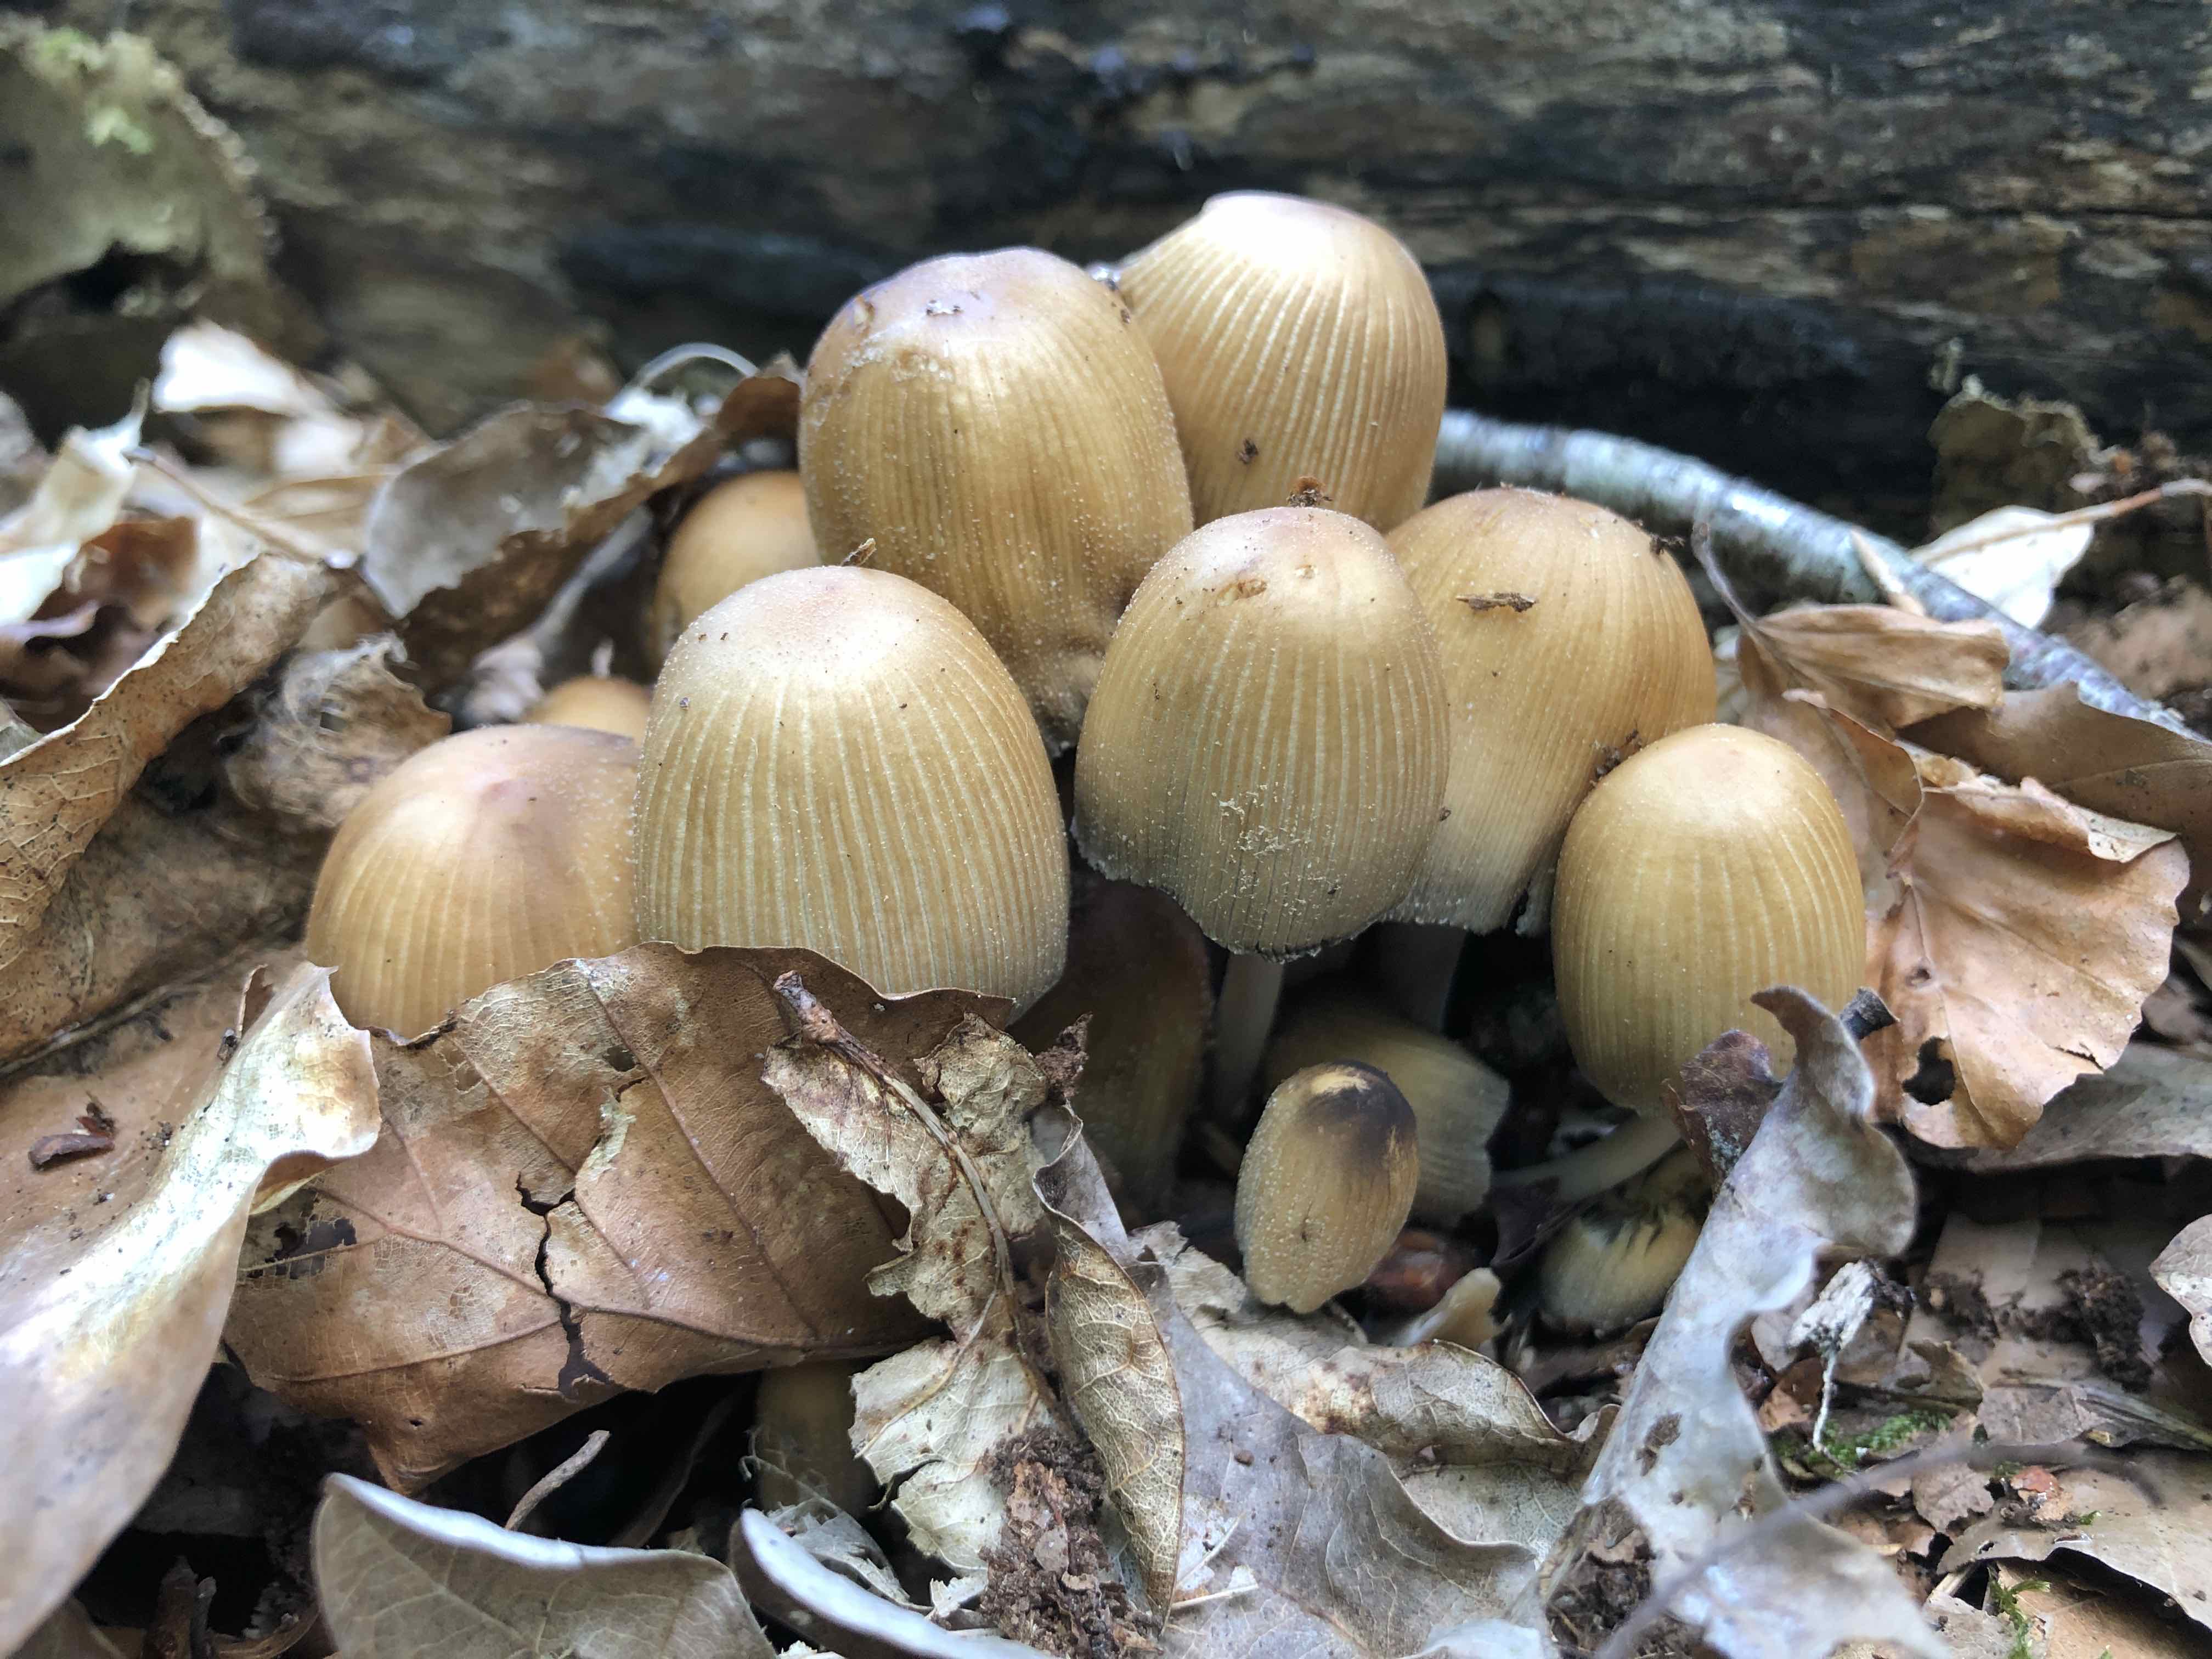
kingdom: Fungi
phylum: Basidiomycota
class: Agaricomycetes
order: Agaricales
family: Psathyrellaceae
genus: Coprinellus
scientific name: Coprinellus micaceus
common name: glimmer-blækhat
